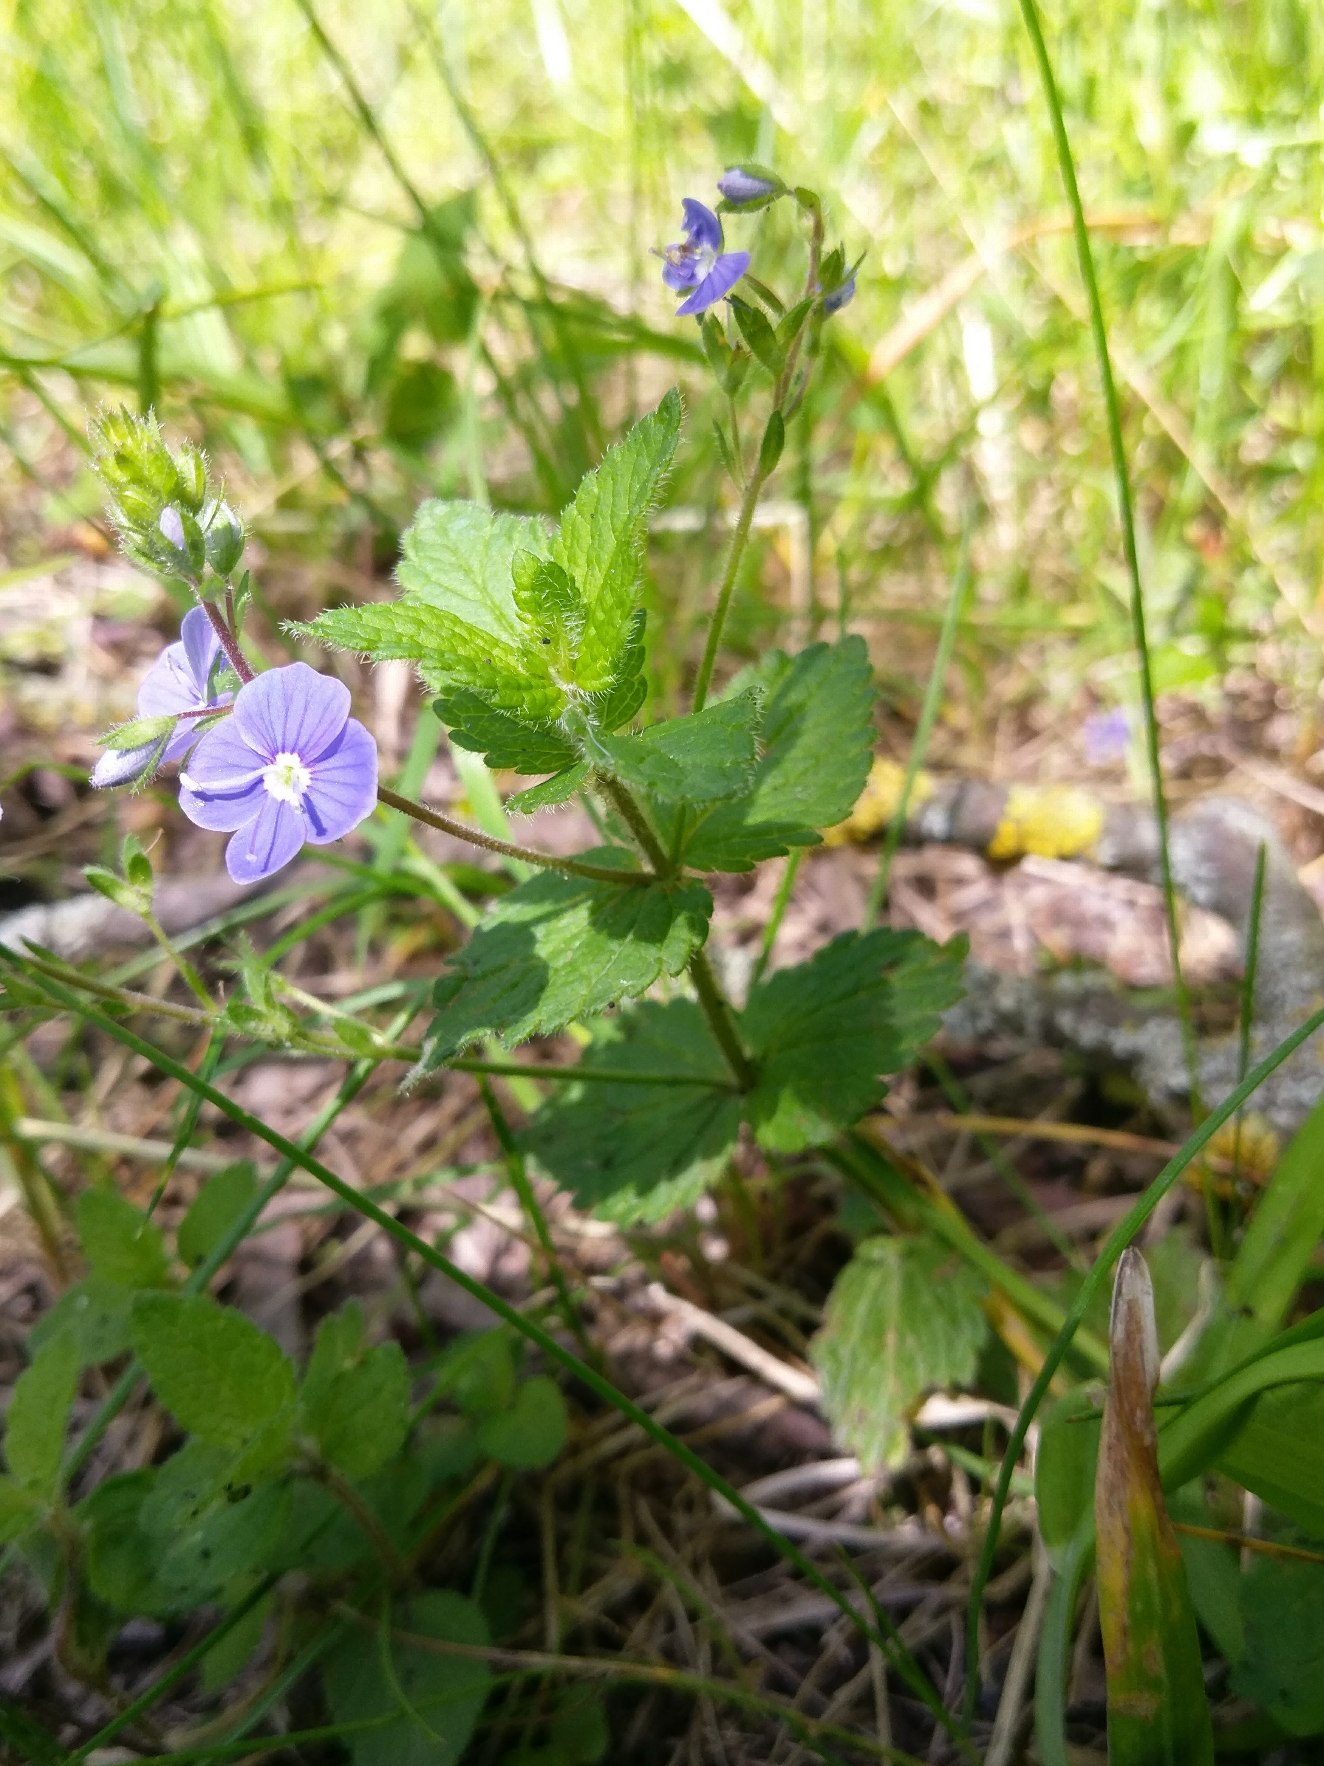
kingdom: Plantae
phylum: Tracheophyta
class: Magnoliopsida
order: Lamiales
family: Plantaginaceae
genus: Veronica
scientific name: Veronica chamaedrys
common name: Tveskægget ærenpris
